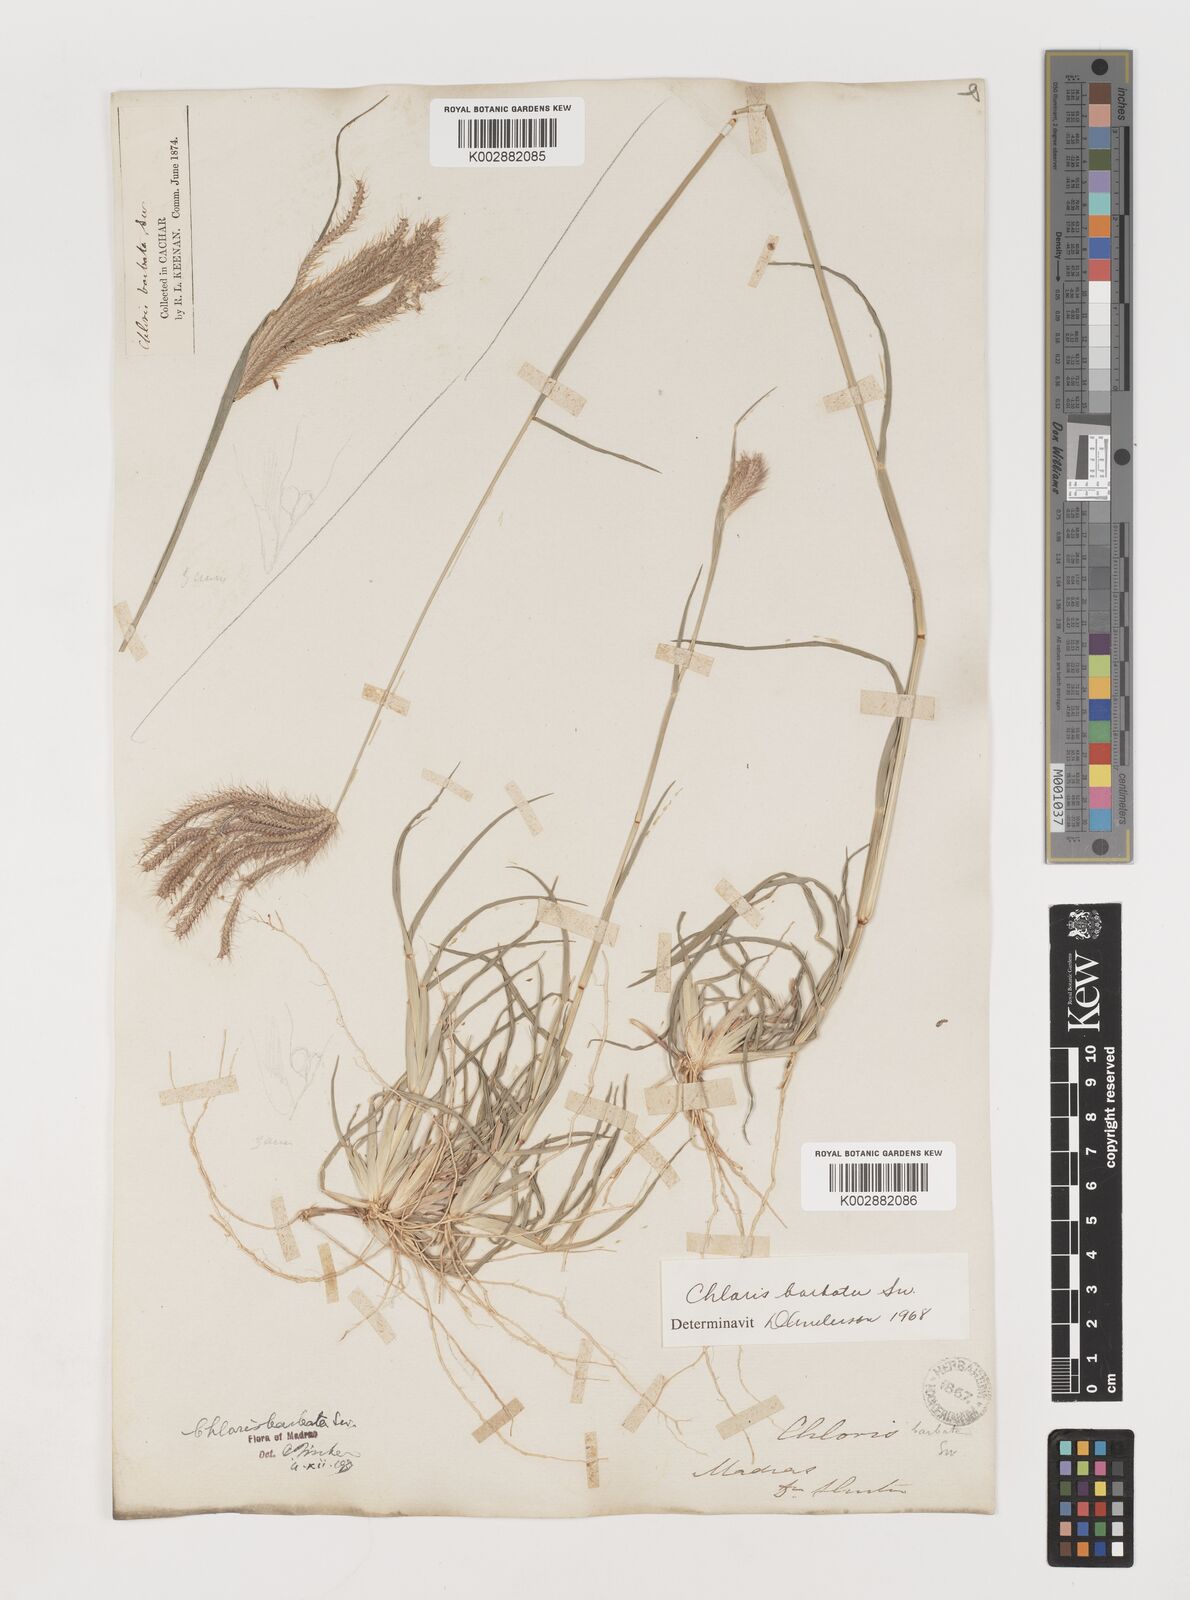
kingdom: Plantae
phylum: Tracheophyta
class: Liliopsida
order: Poales
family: Poaceae
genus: Chloris
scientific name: Chloris barbata
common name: Swollen fingergrass
